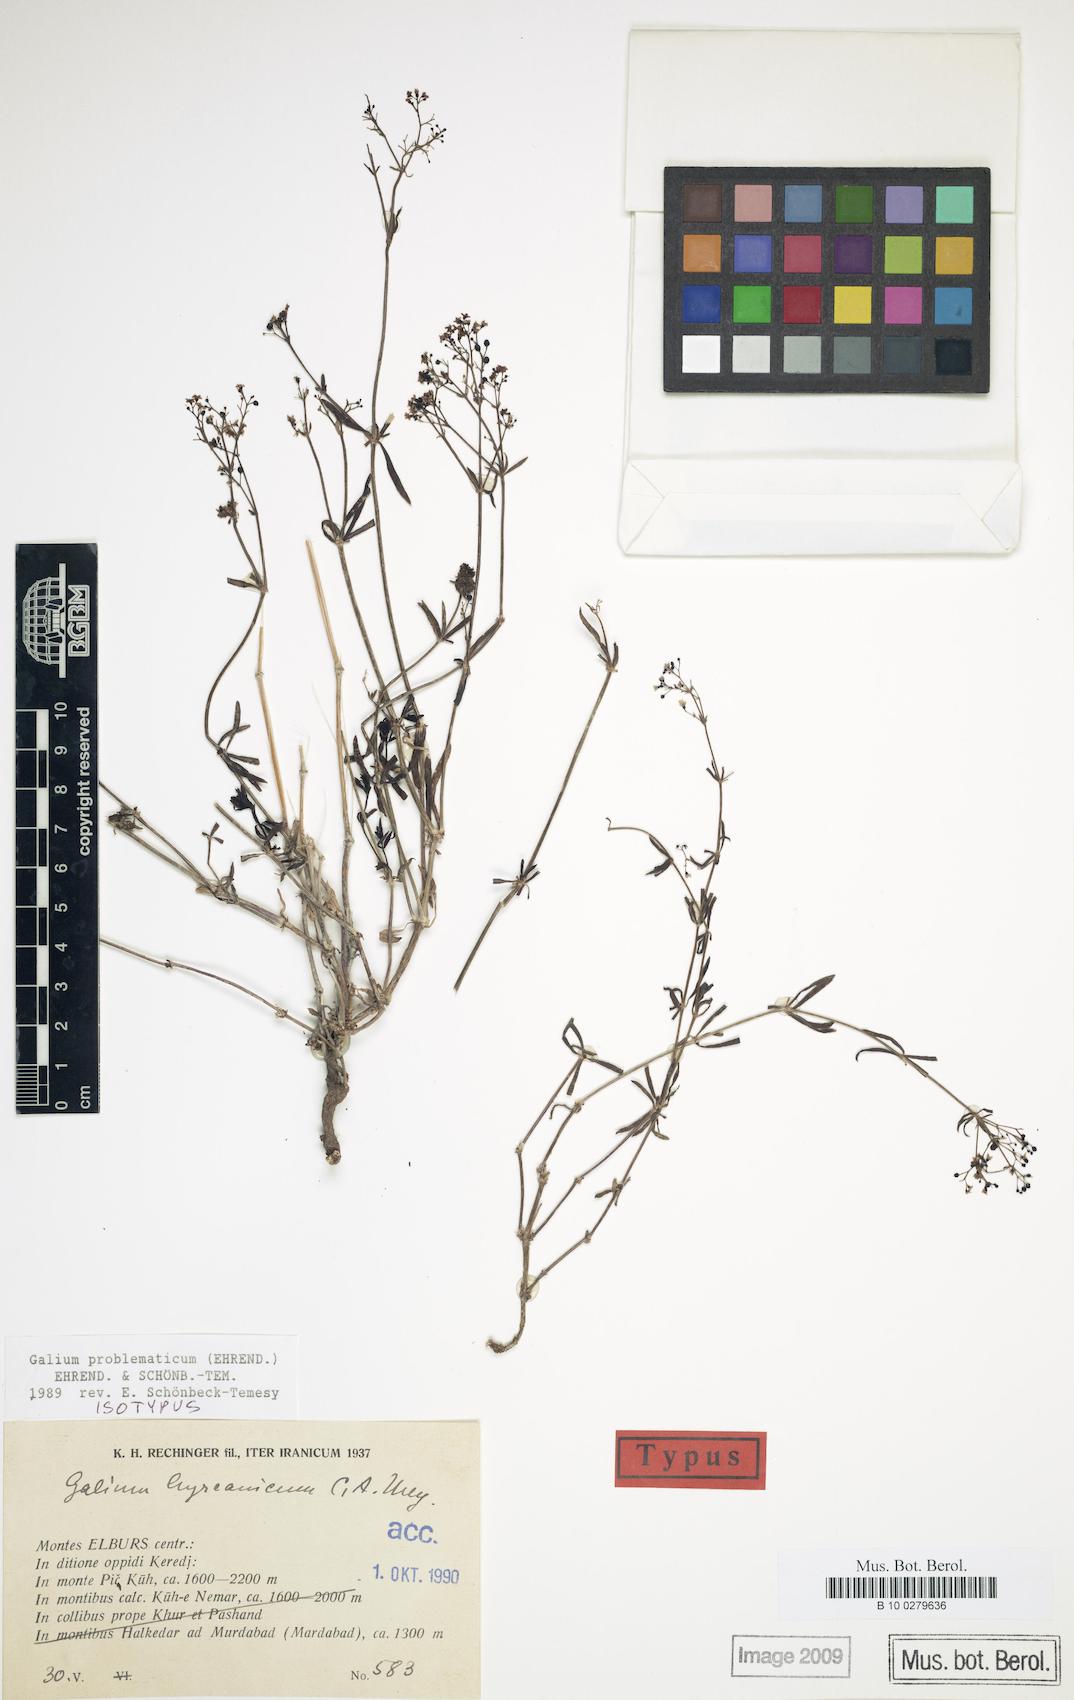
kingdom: Plantae
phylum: Tracheophyta
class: Magnoliopsida
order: Gentianales
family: Rubiaceae
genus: Galium
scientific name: Galium problematicum
